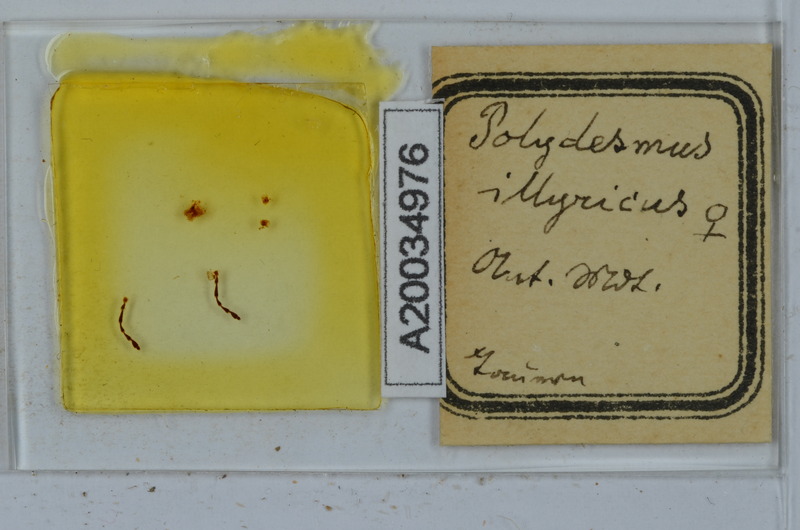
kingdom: Animalia
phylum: Arthropoda
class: Diplopoda
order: Polydesmida
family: Polydesmidae
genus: Polydesmus
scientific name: Polydesmus complanatus
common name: Flat-backed millipede
